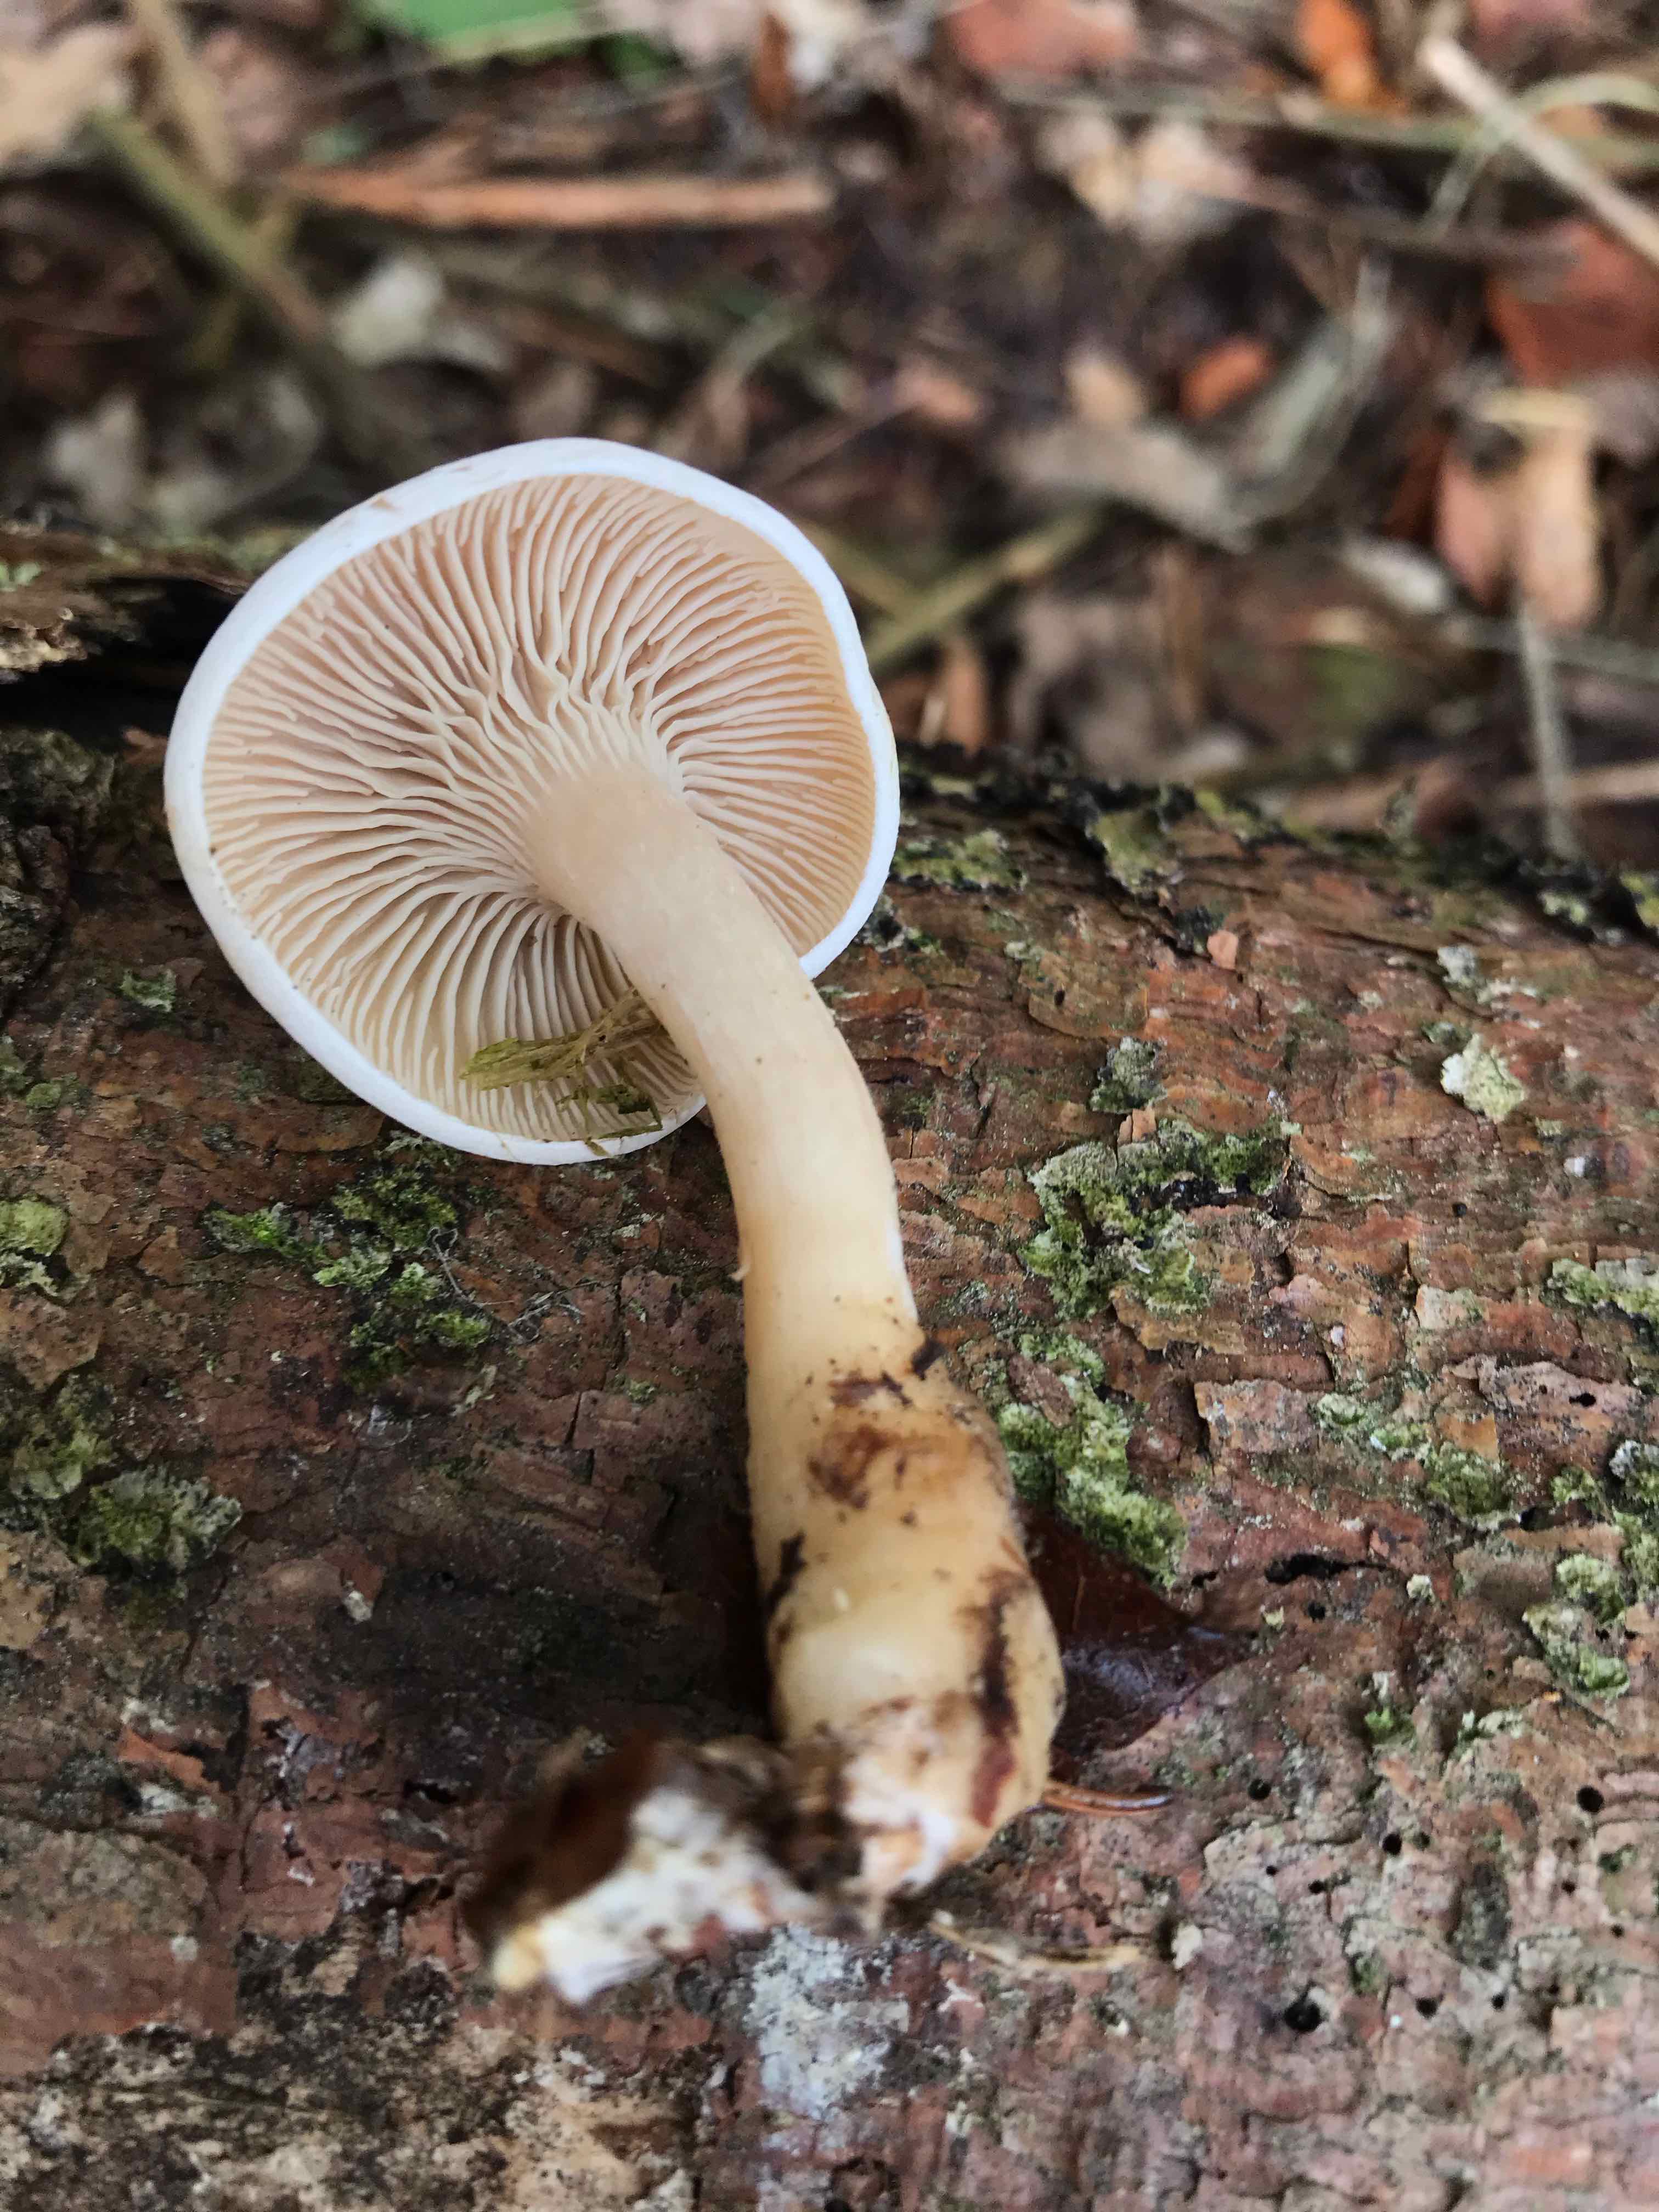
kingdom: Fungi
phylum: Basidiomycota
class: Agaricomycetes
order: Agaricales
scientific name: Agaricales
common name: champignonordenen
